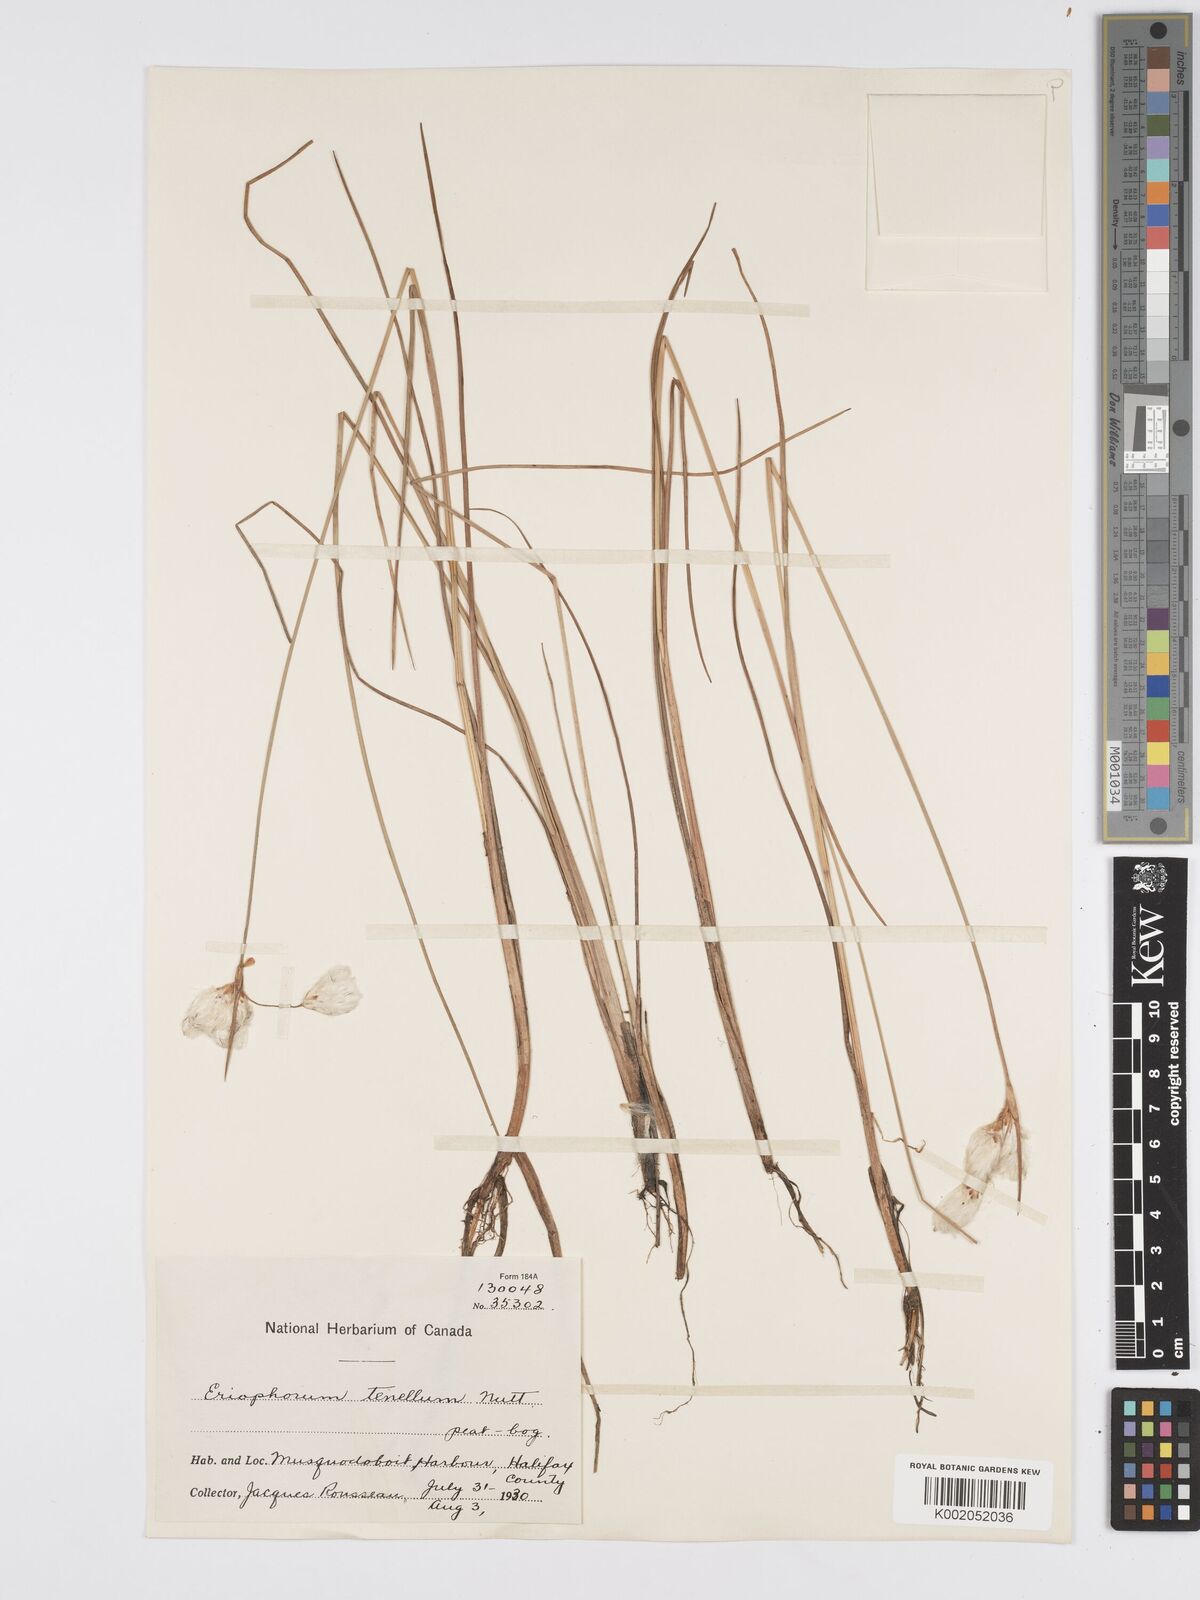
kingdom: Plantae
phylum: Tracheophyta
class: Liliopsida
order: Poales
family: Cyperaceae
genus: Eriophorum
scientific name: Eriophorum tenellum
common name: Few-nerved cottongrass
